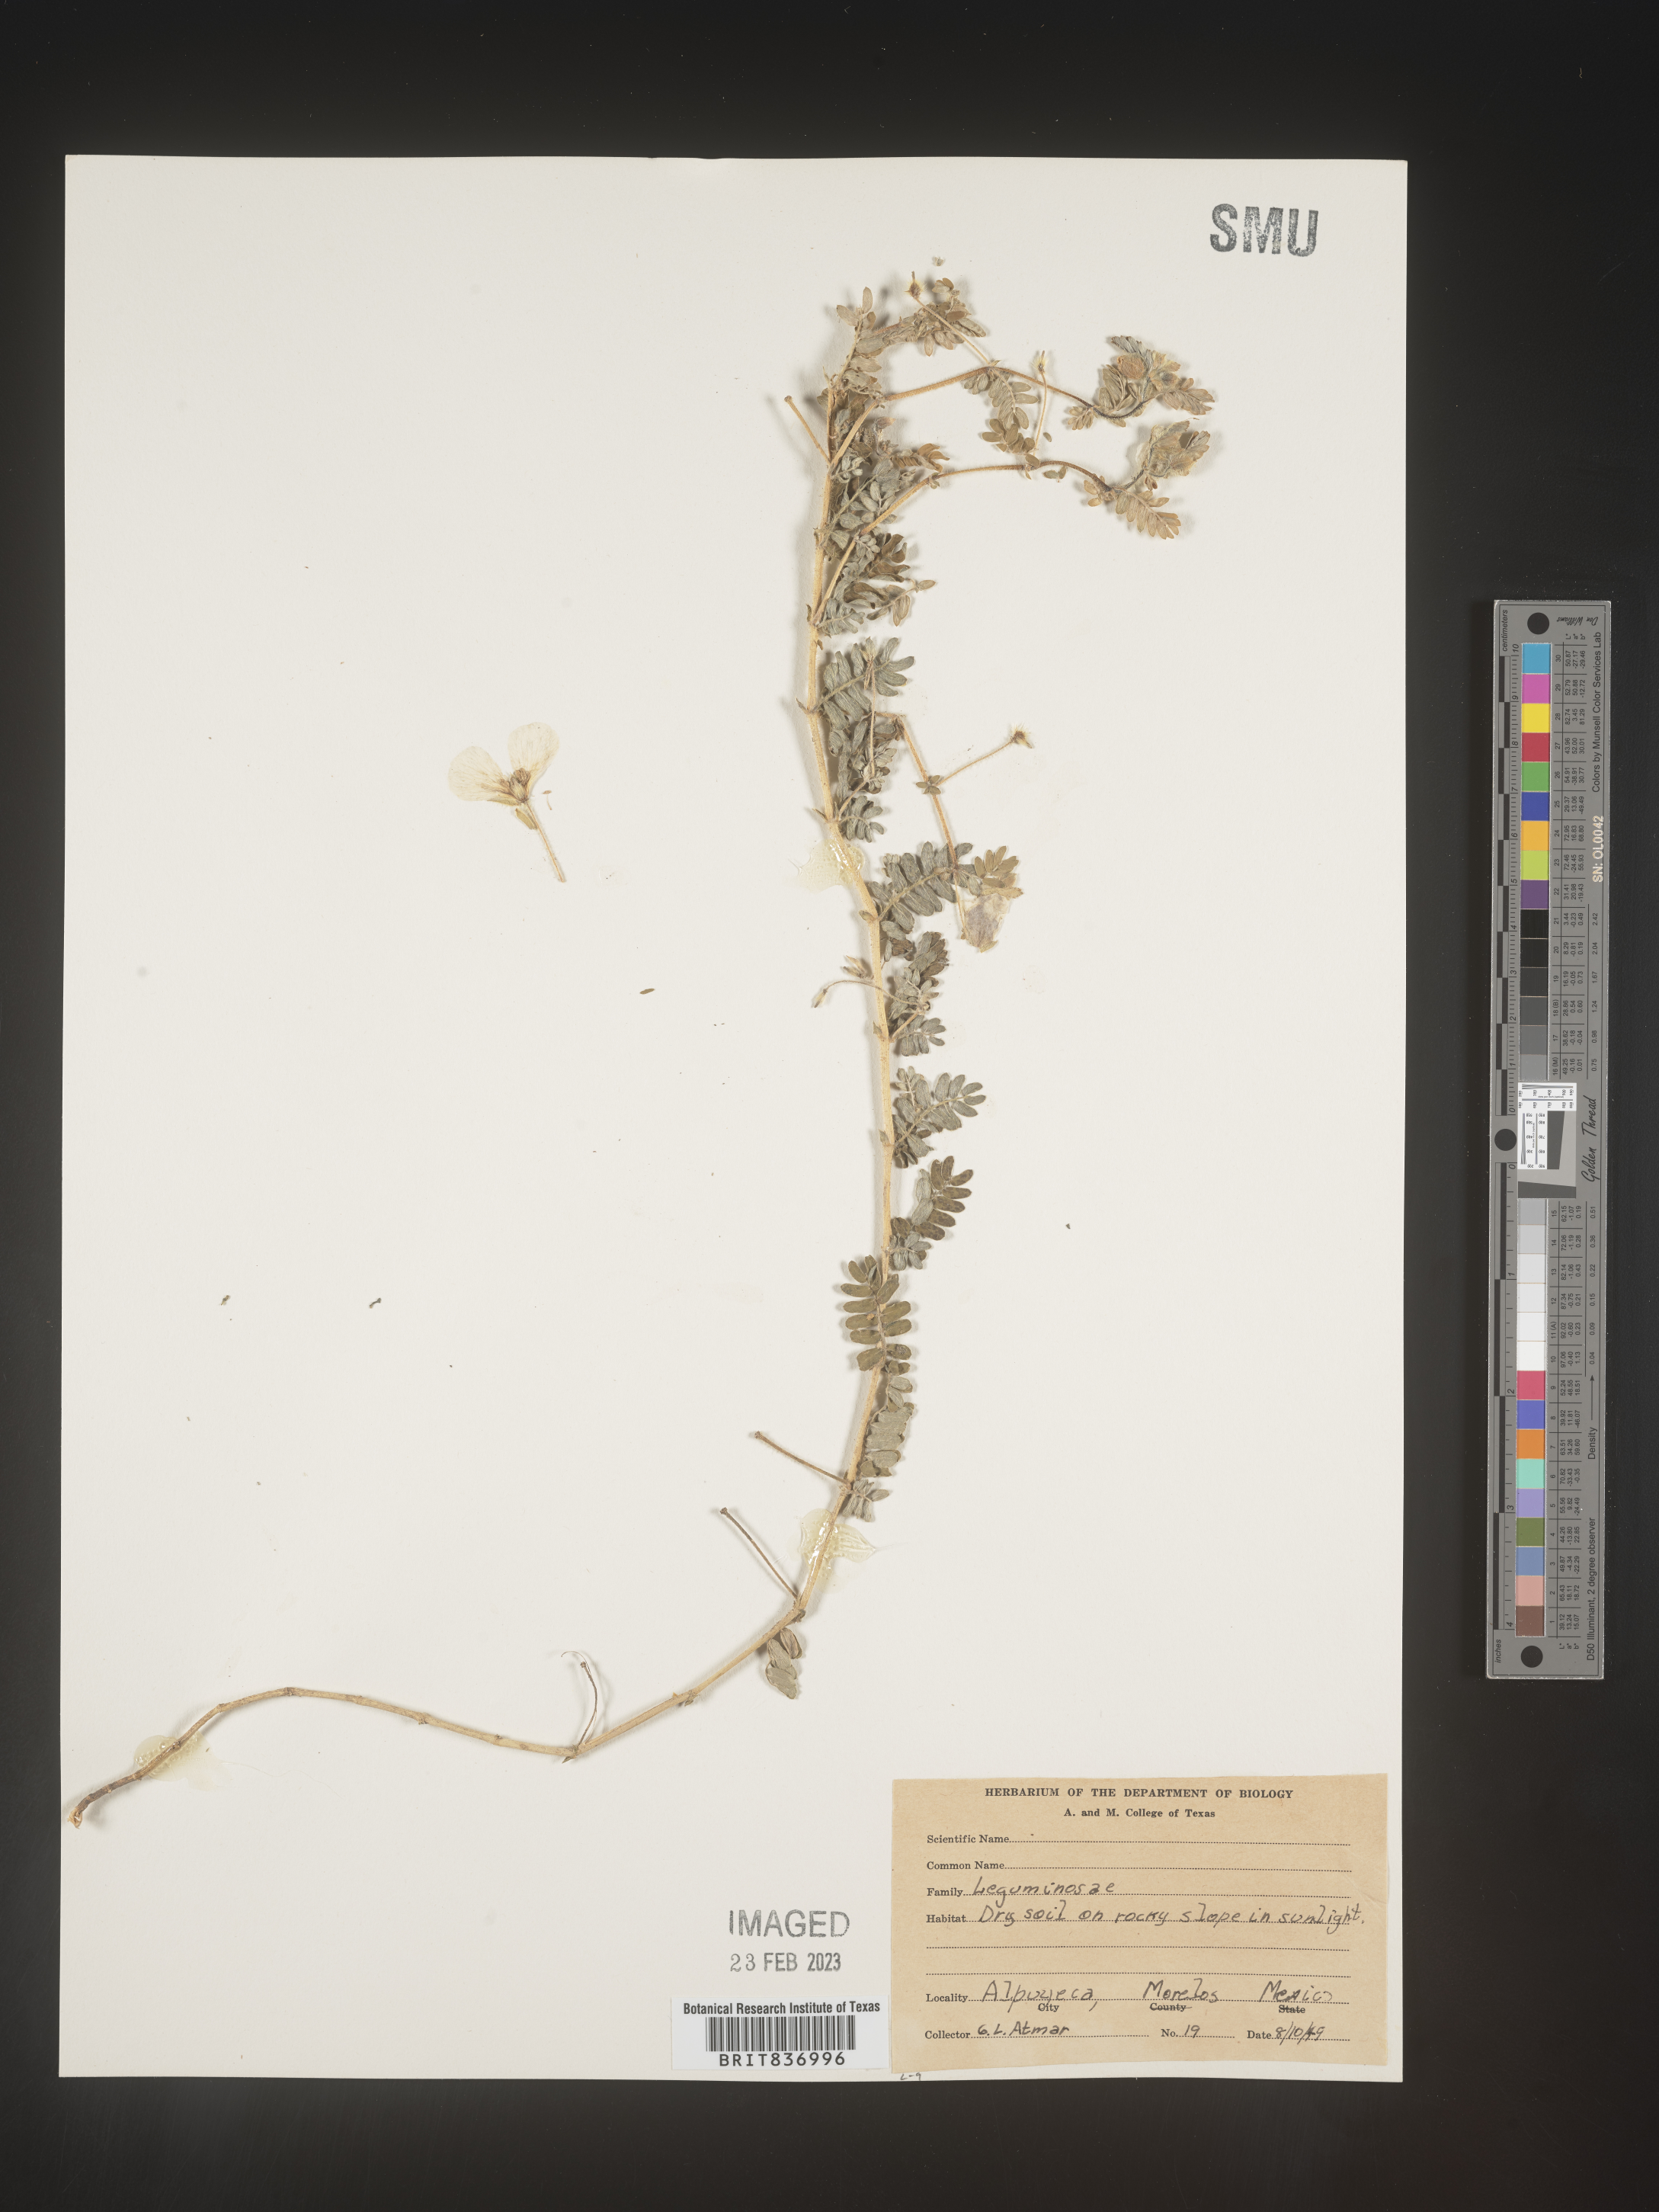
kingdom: Plantae
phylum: Tracheophyta
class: Magnoliopsida
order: Fabales
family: Fabaceae
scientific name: Fabaceae
